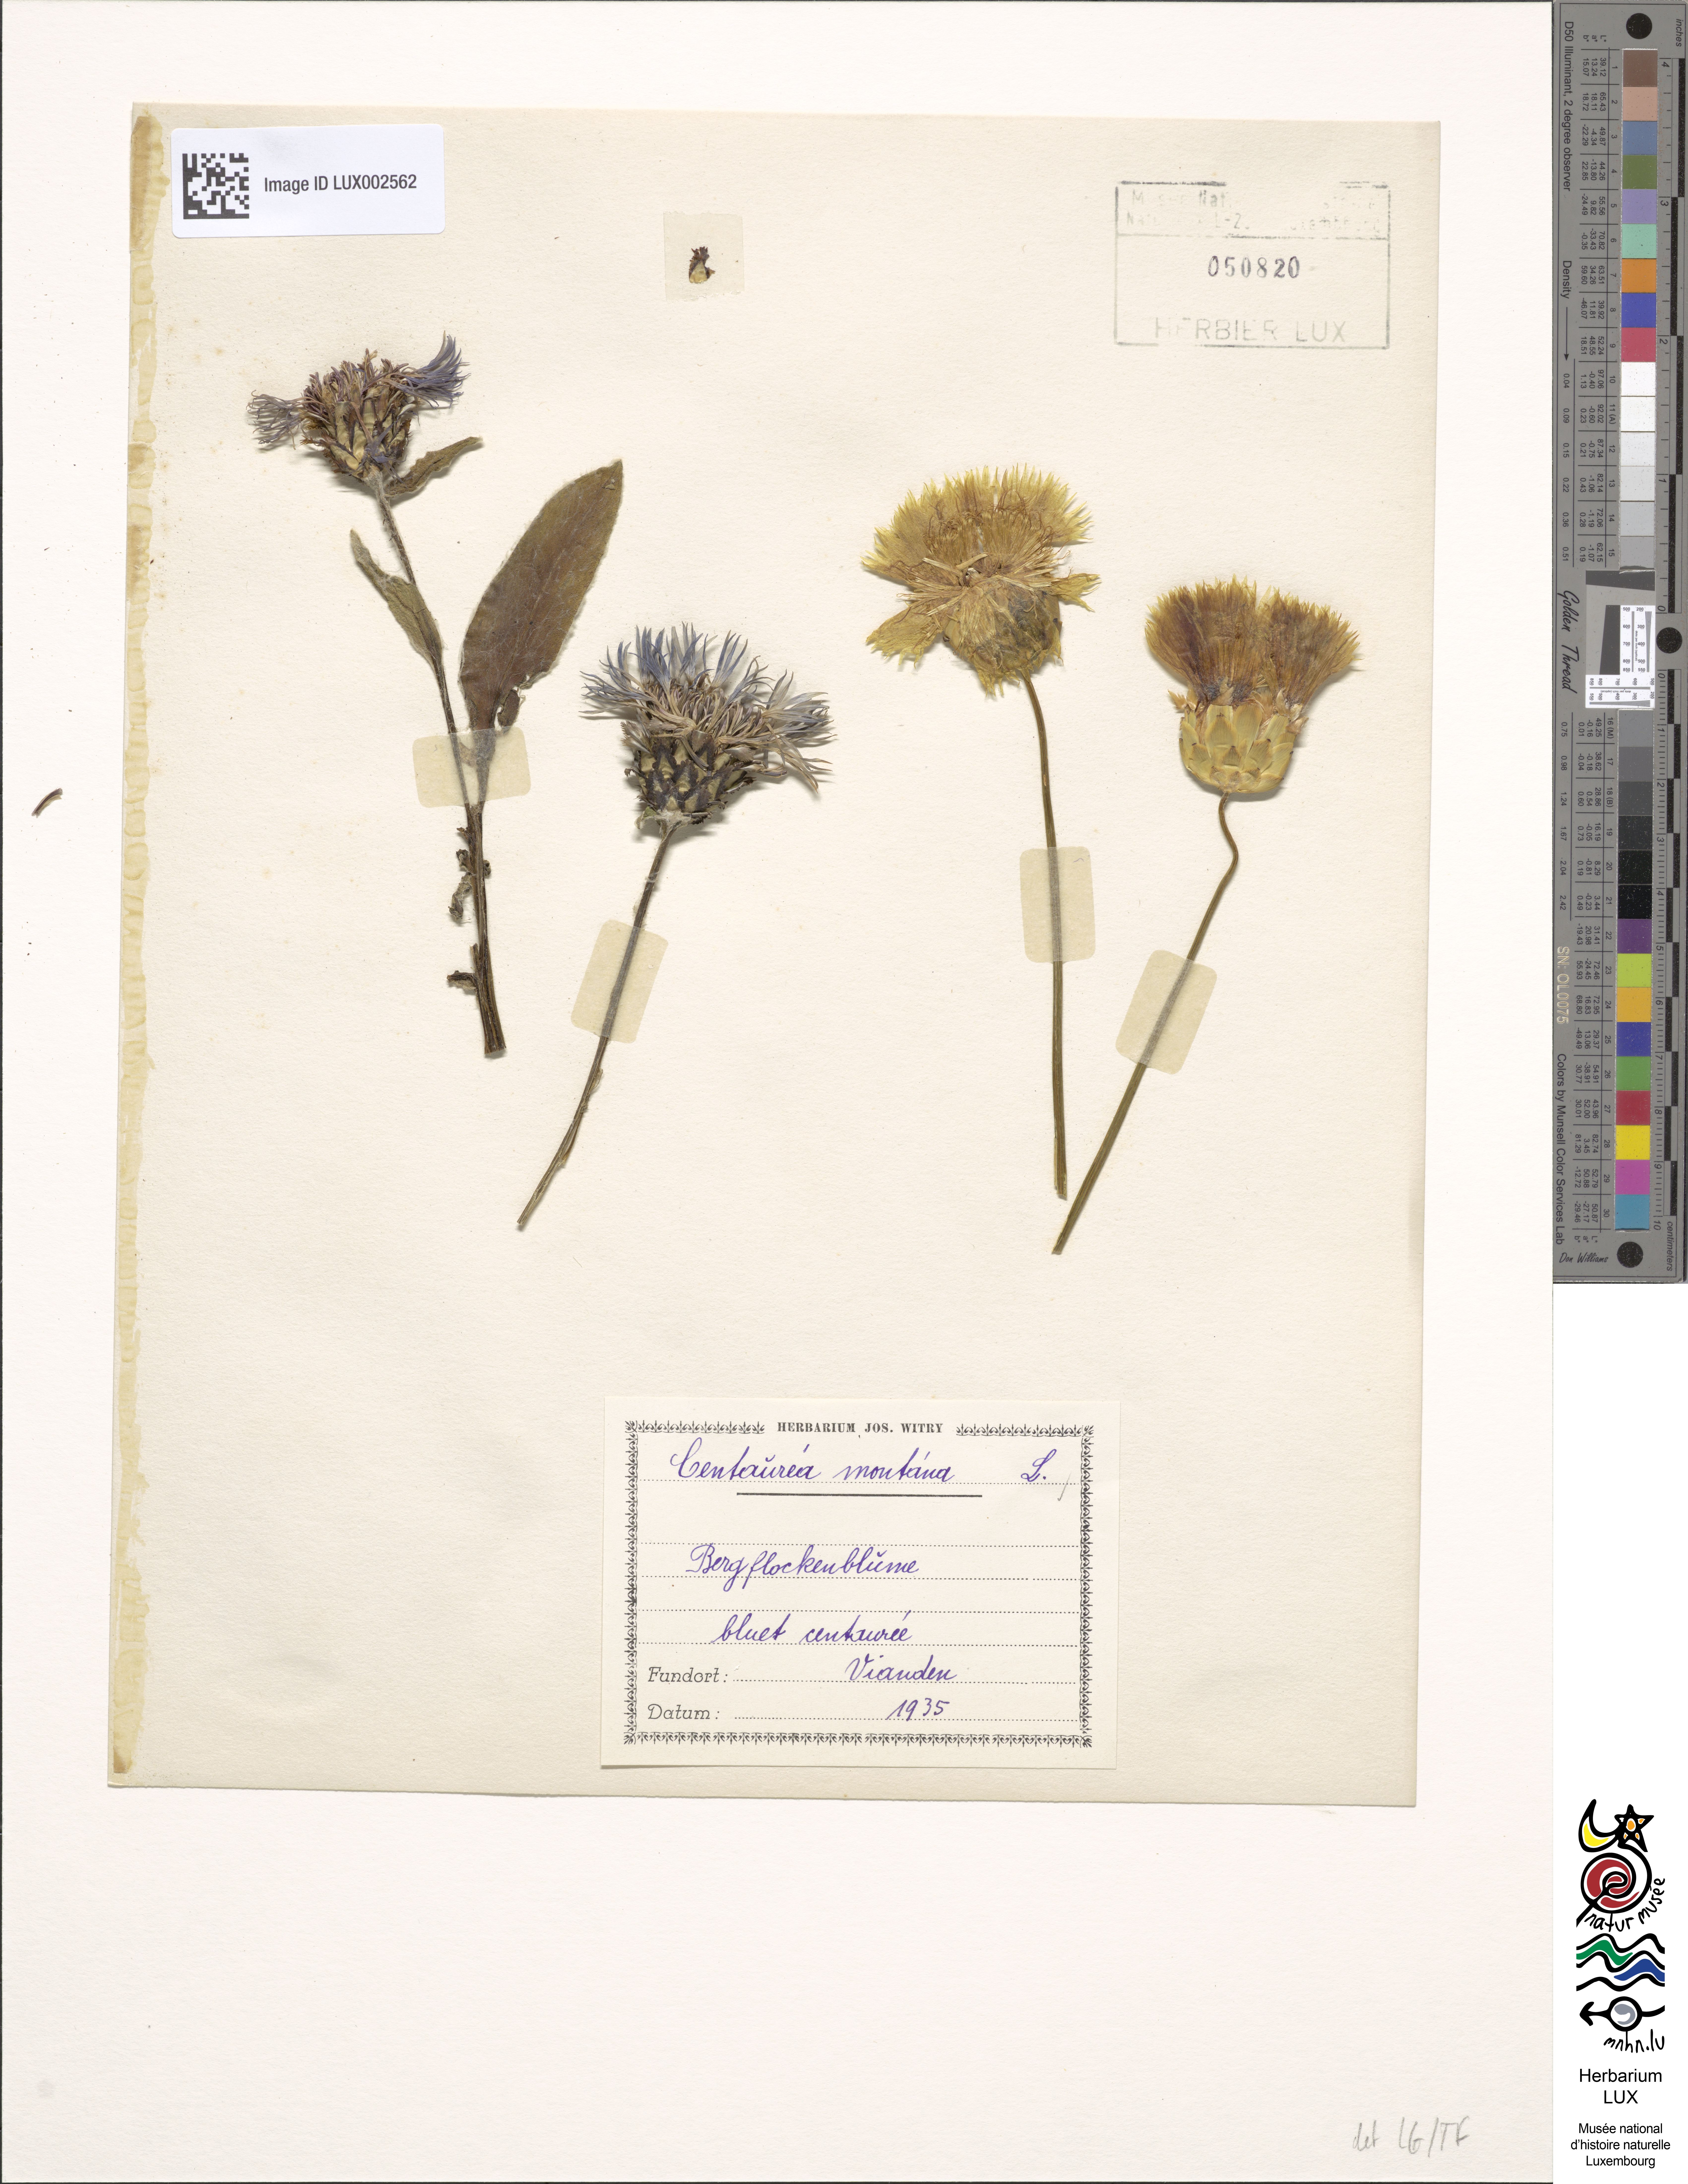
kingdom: Plantae
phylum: Tracheophyta
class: Magnoliopsida
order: Asterales
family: Asteraceae
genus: Centaurea
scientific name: Centaurea montana
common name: Perennial cornflower
